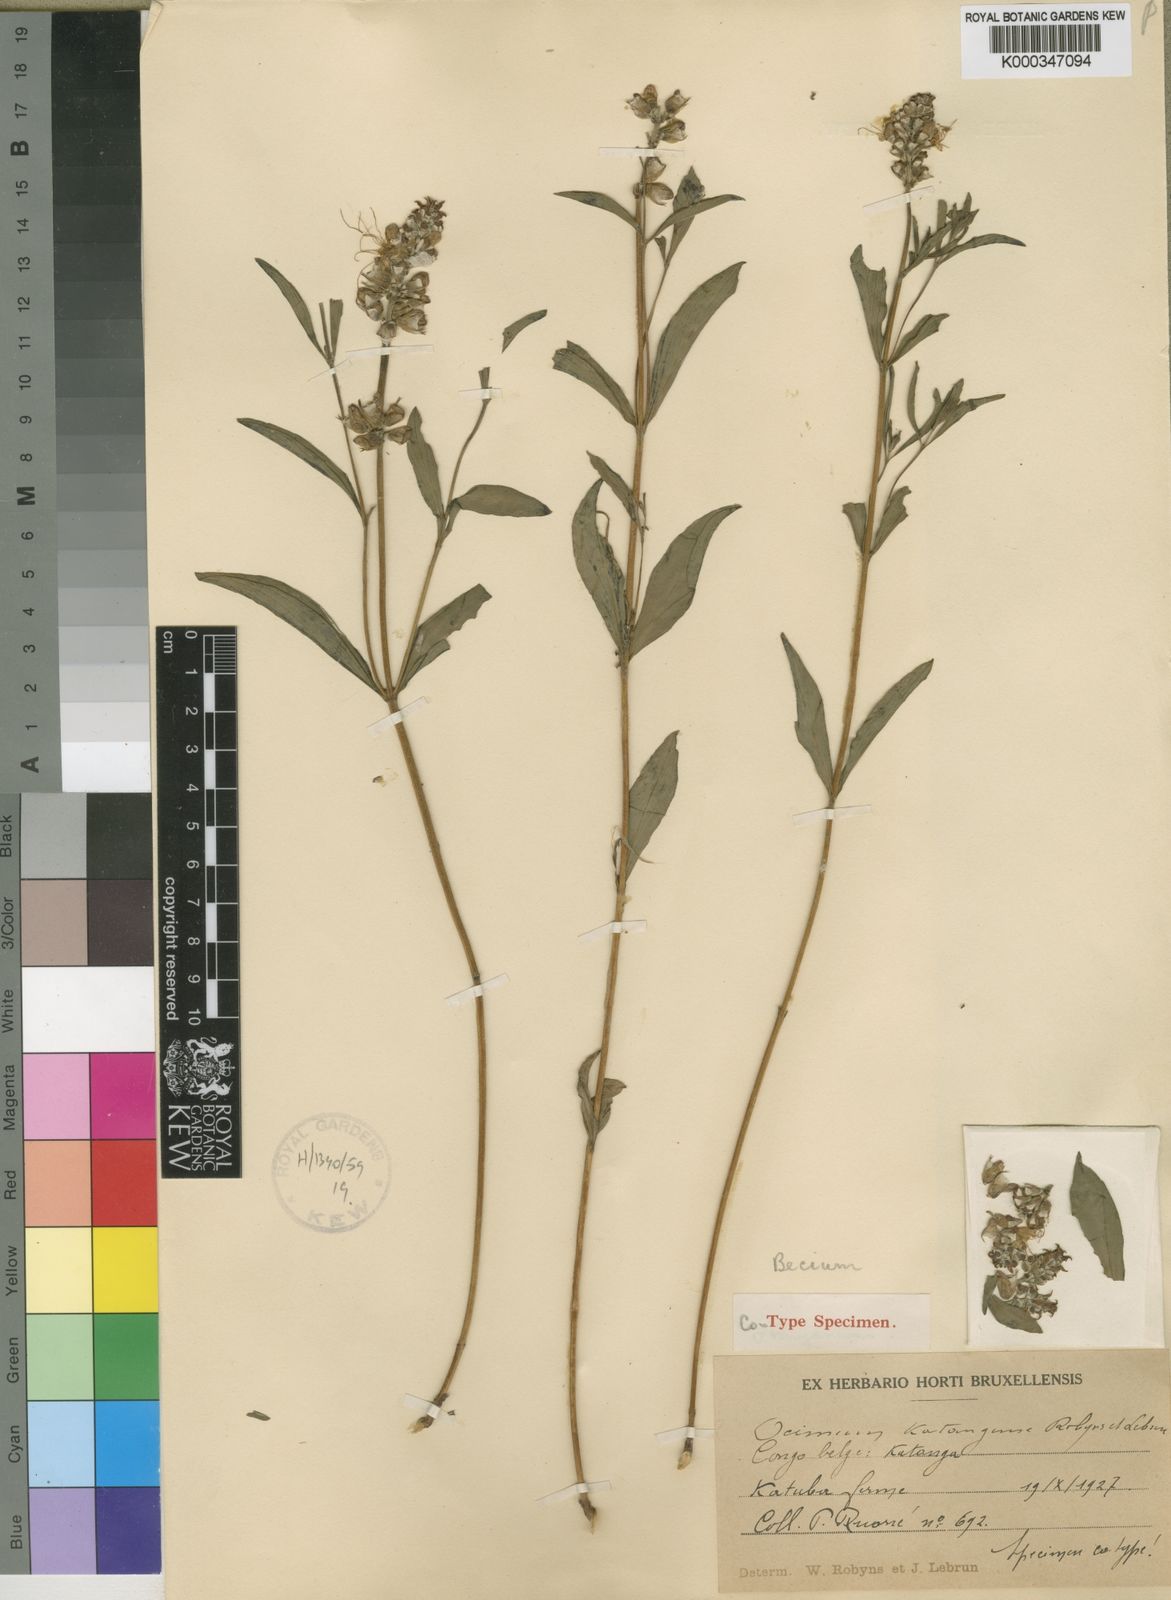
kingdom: Plantae
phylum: Tracheophyta
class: Magnoliopsida
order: Lamiales
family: Lamiaceae
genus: Ocimum
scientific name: Ocimum centraliafricanum
